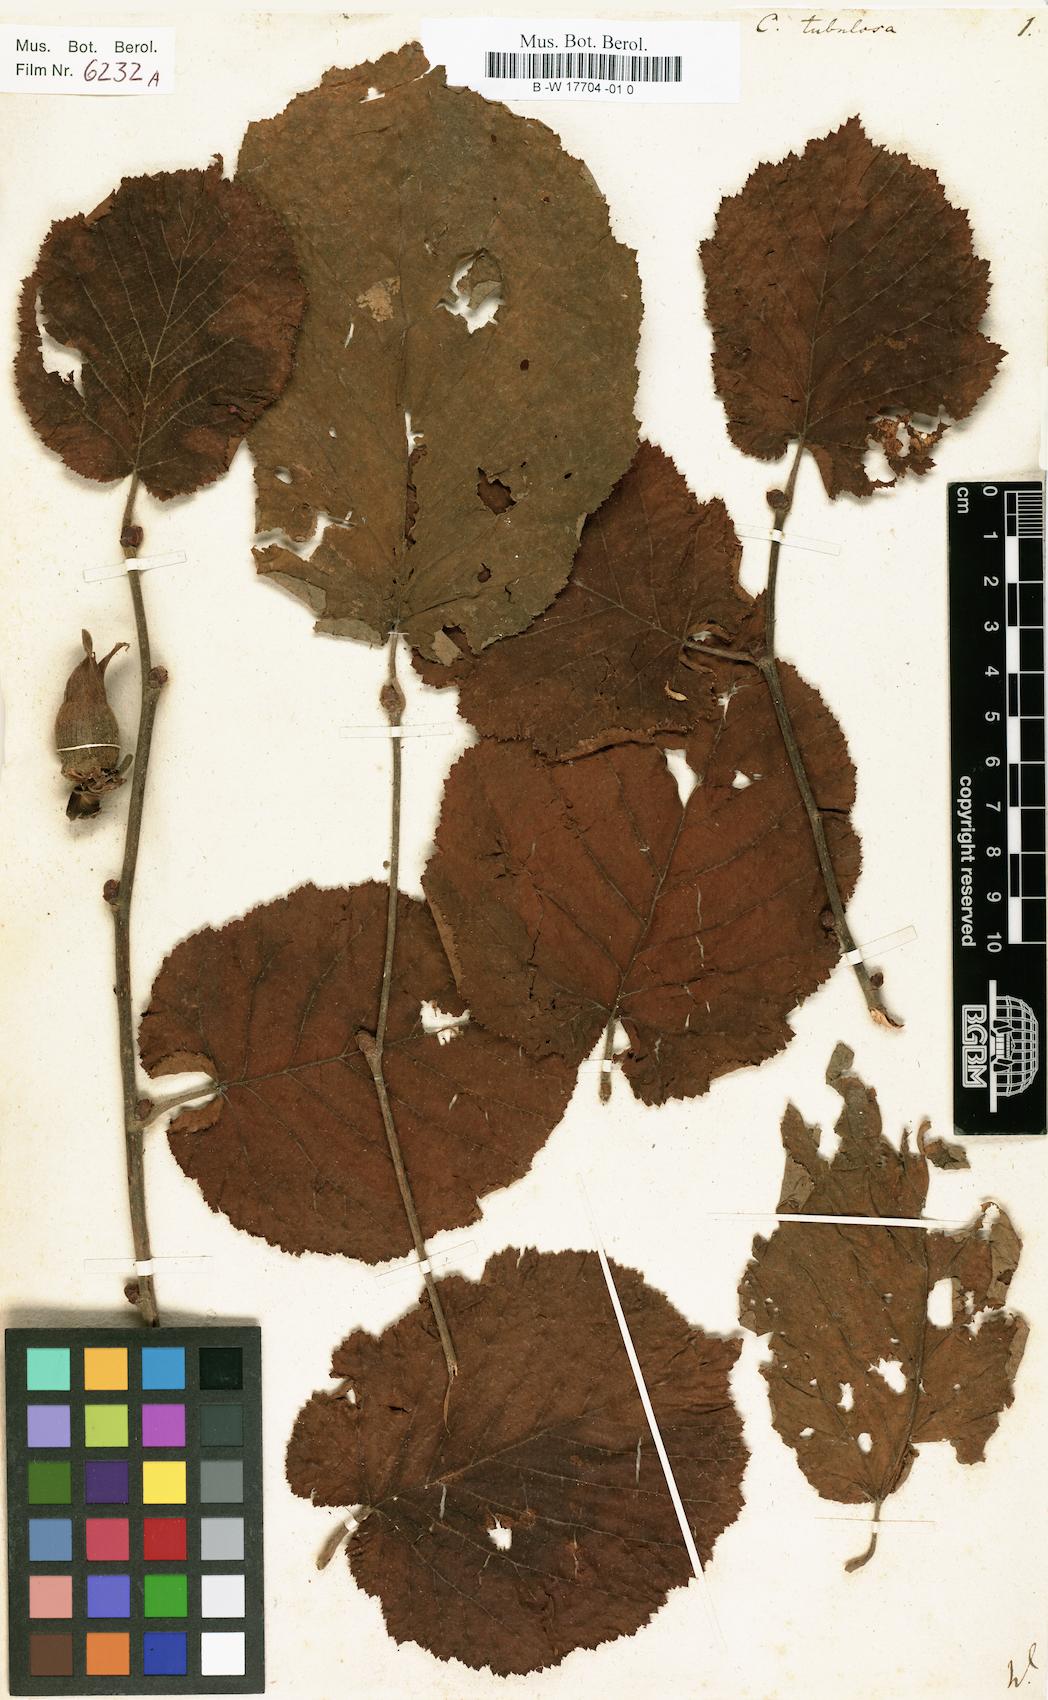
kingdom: Plantae
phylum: Tracheophyta
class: Magnoliopsida
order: Fagales
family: Betulaceae
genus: Corylus
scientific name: Corylus maxima
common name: Filbert
